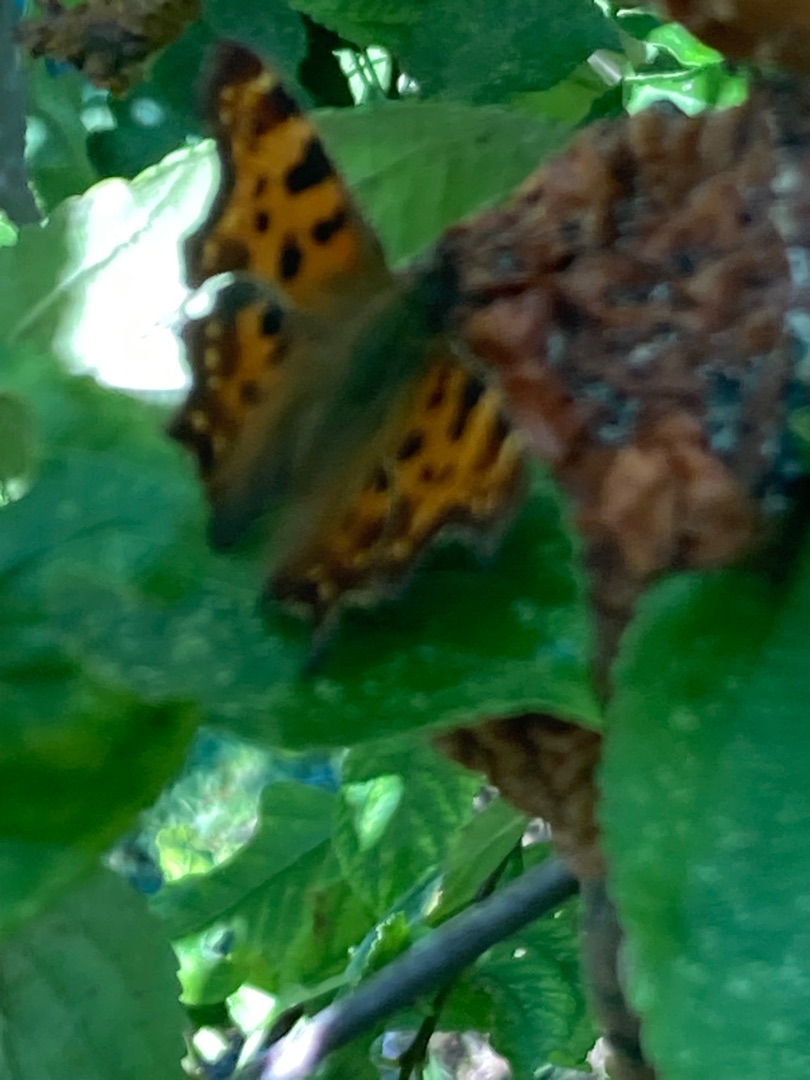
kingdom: Animalia
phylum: Arthropoda
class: Insecta
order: Lepidoptera
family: Nymphalidae
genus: Polygonia
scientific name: Polygonia c-album
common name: Det hvide C
